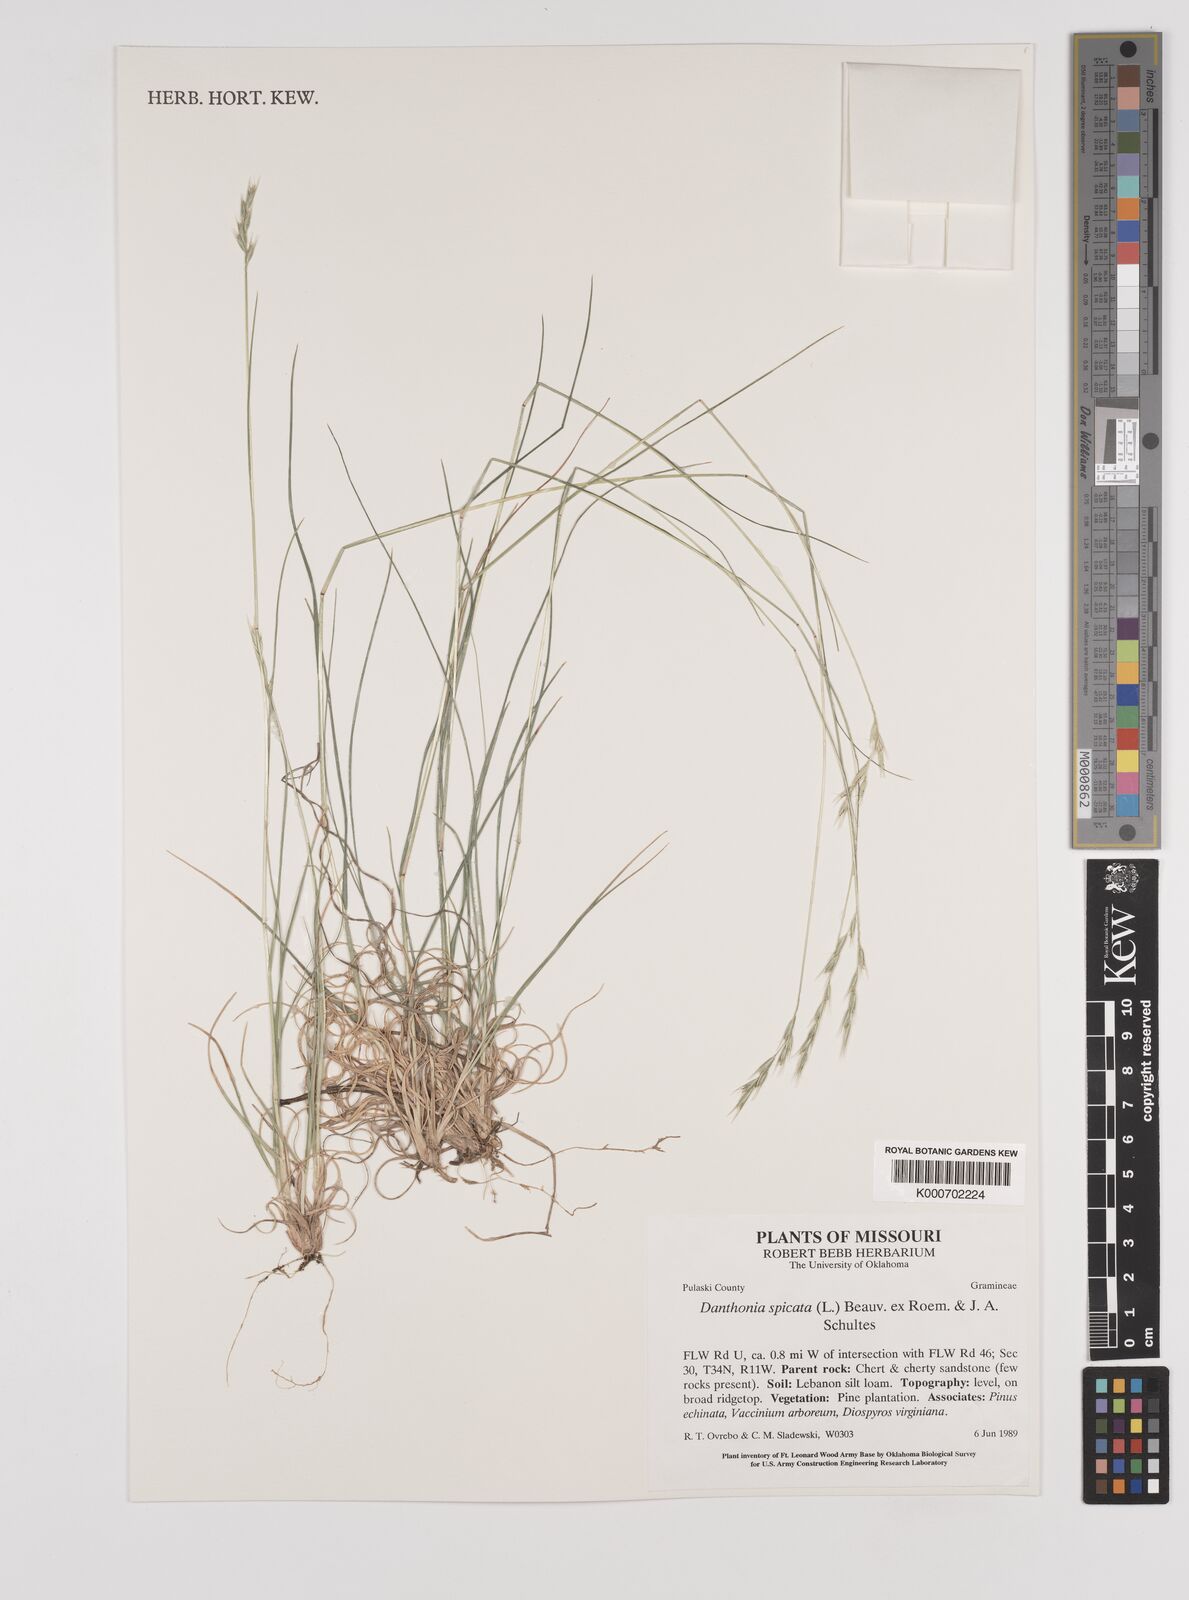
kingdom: Plantae
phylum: Tracheophyta
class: Liliopsida
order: Poales
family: Poaceae
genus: Danthonia
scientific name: Danthonia spicata
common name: Common wild oatgrass
